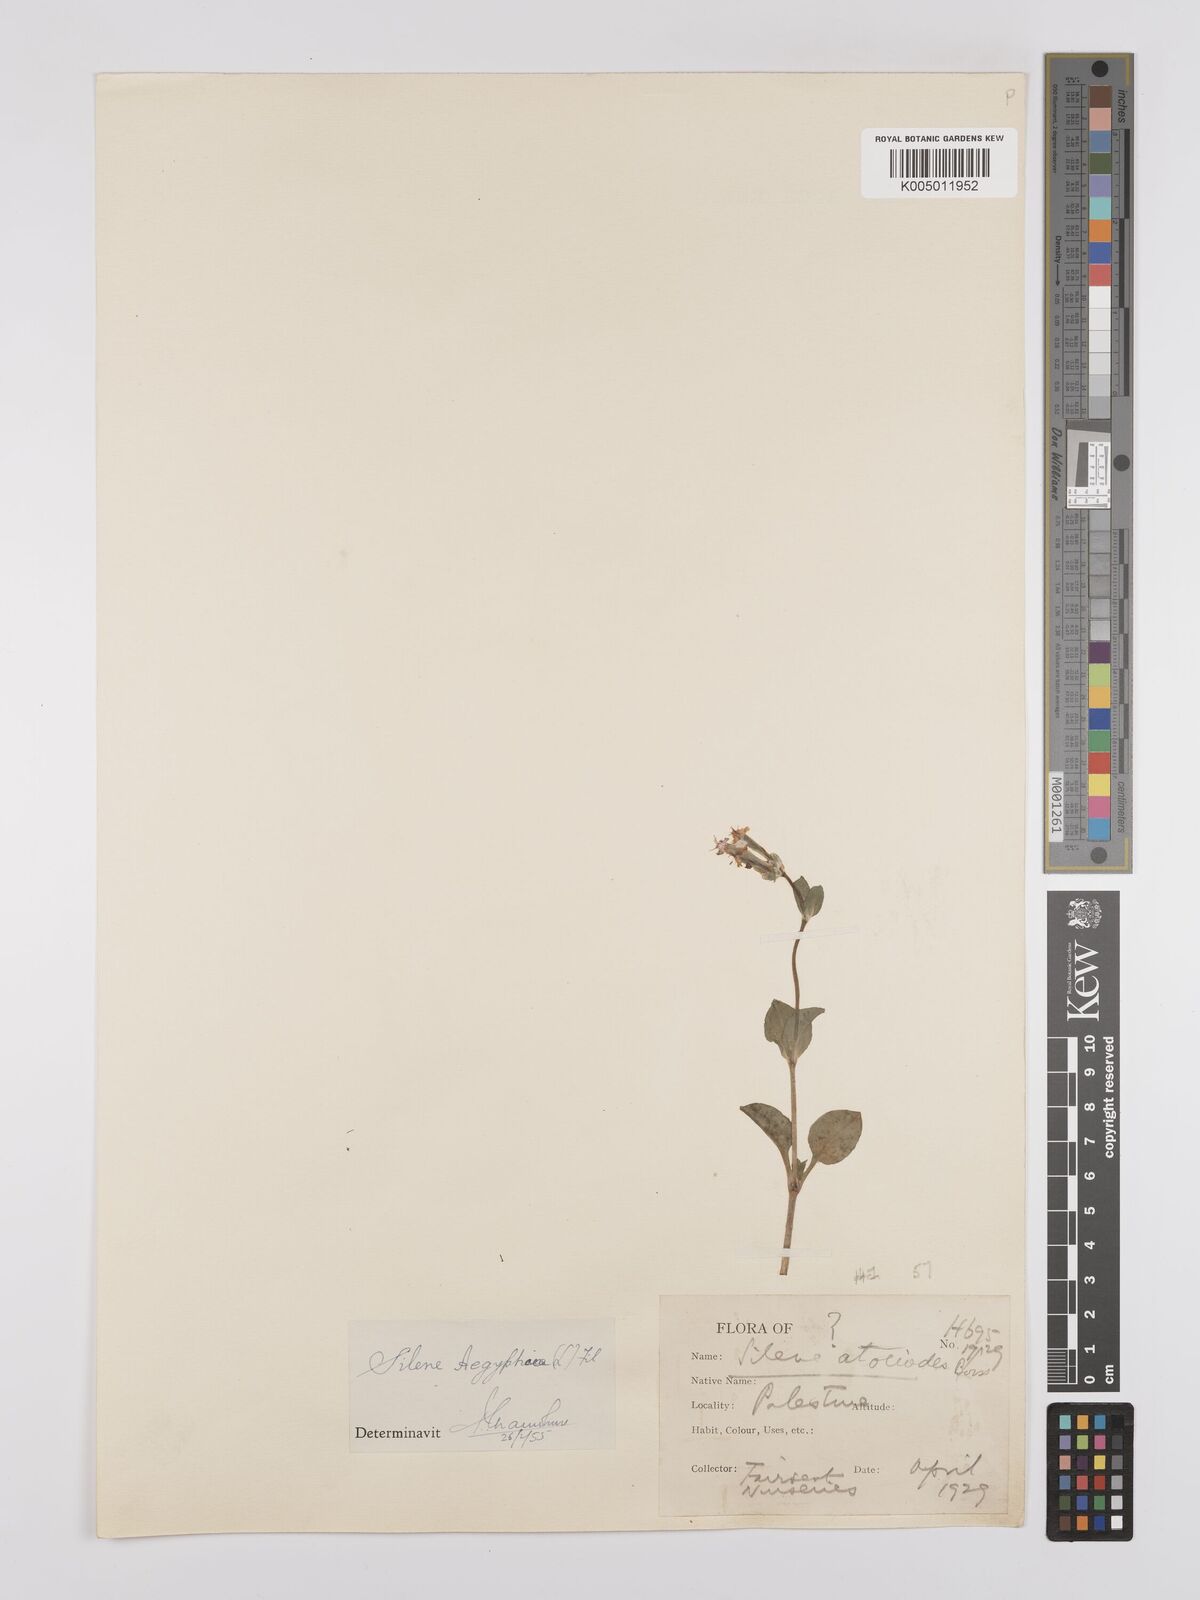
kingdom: Plantae
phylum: Tracheophyta
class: Magnoliopsida
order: Caryophyllales
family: Caryophyllaceae
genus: Silene
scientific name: Silene aegyptiaca
